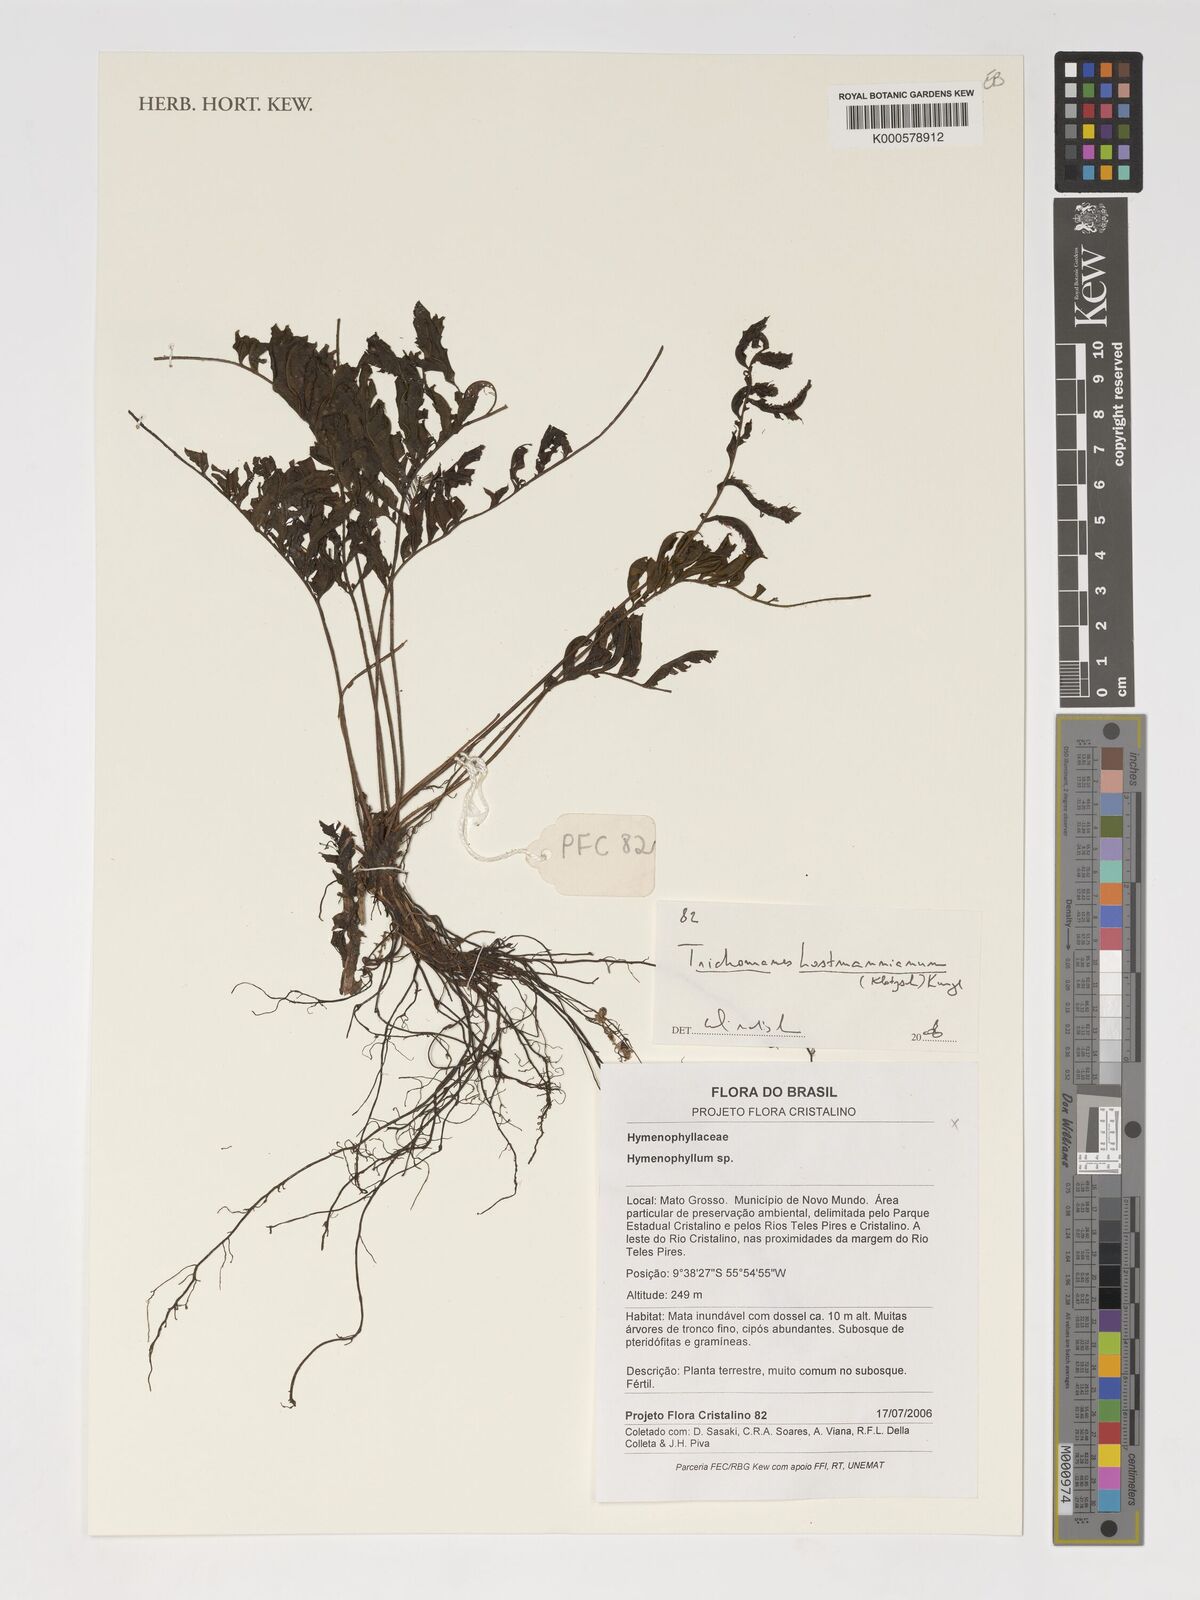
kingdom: Plantae
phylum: Tracheophyta
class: Polypodiopsida
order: Hymenophyllales
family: Hymenophyllaceae
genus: Trichomanes
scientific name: Trichomanes hostmannianum
